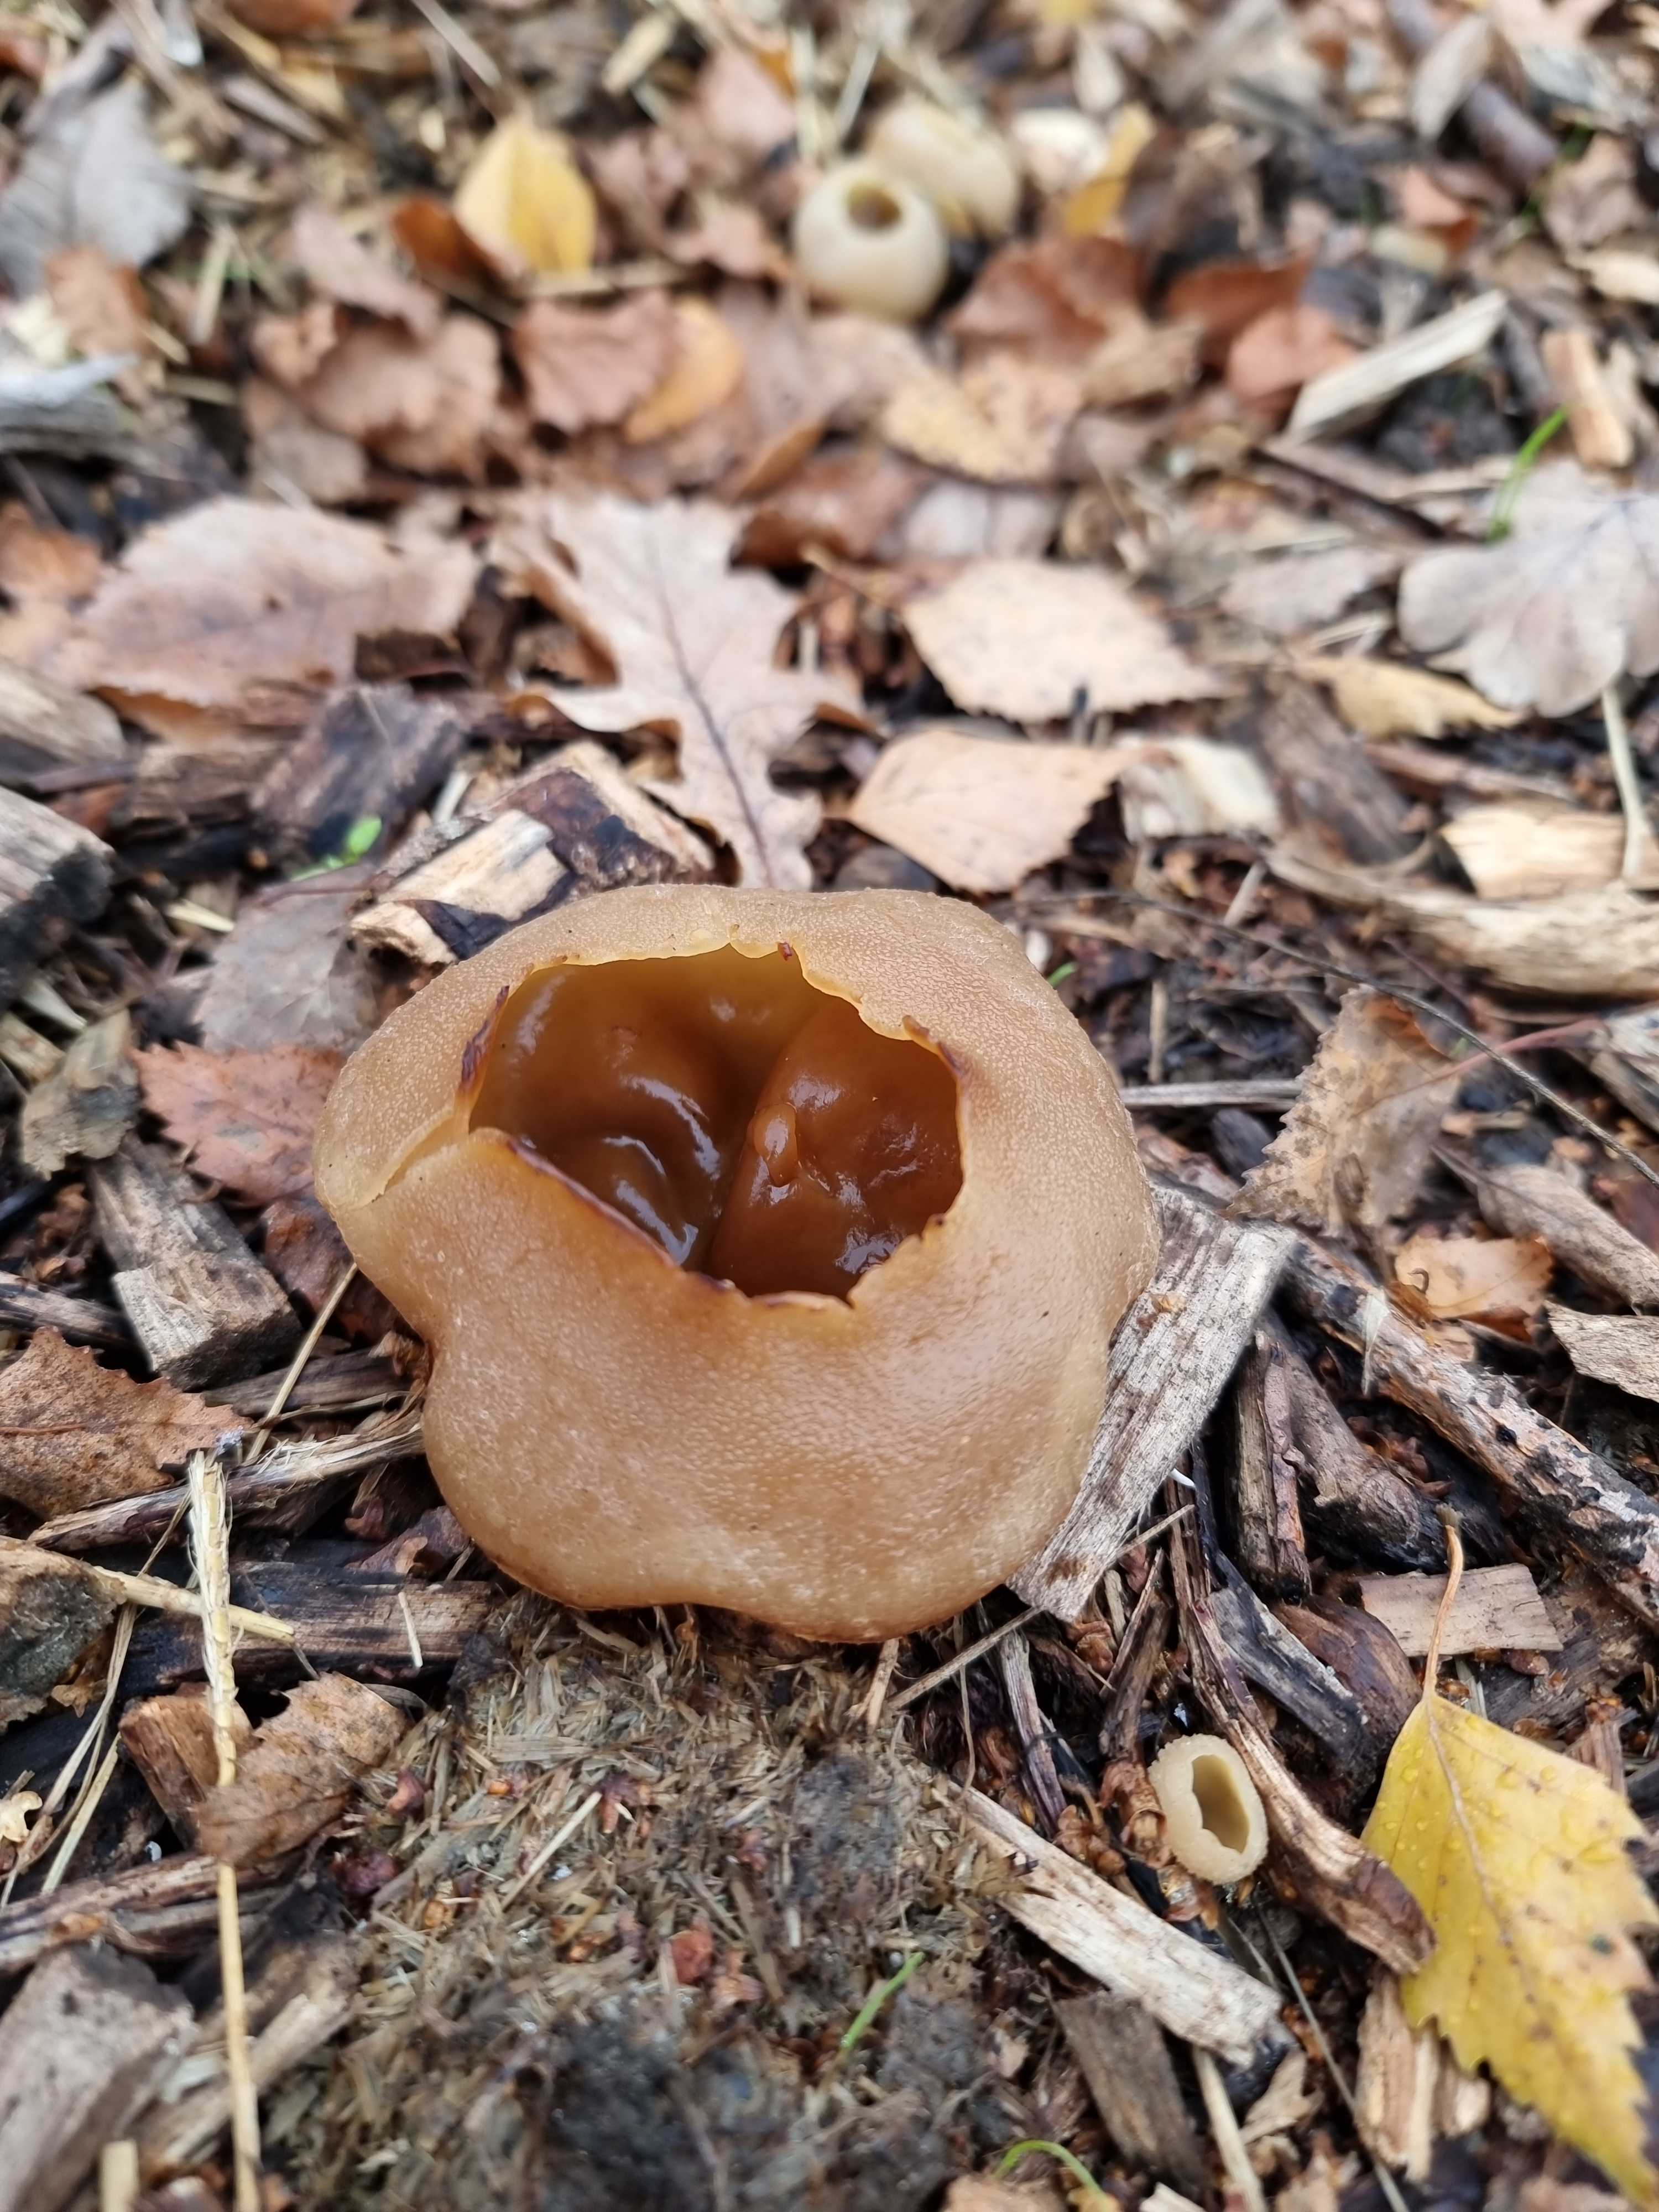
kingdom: Fungi
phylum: Ascomycota
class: Pezizomycetes
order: Pezizales
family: Pezizaceae
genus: Peziza
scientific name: Peziza vesiculosa
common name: blære-bægersvamp
